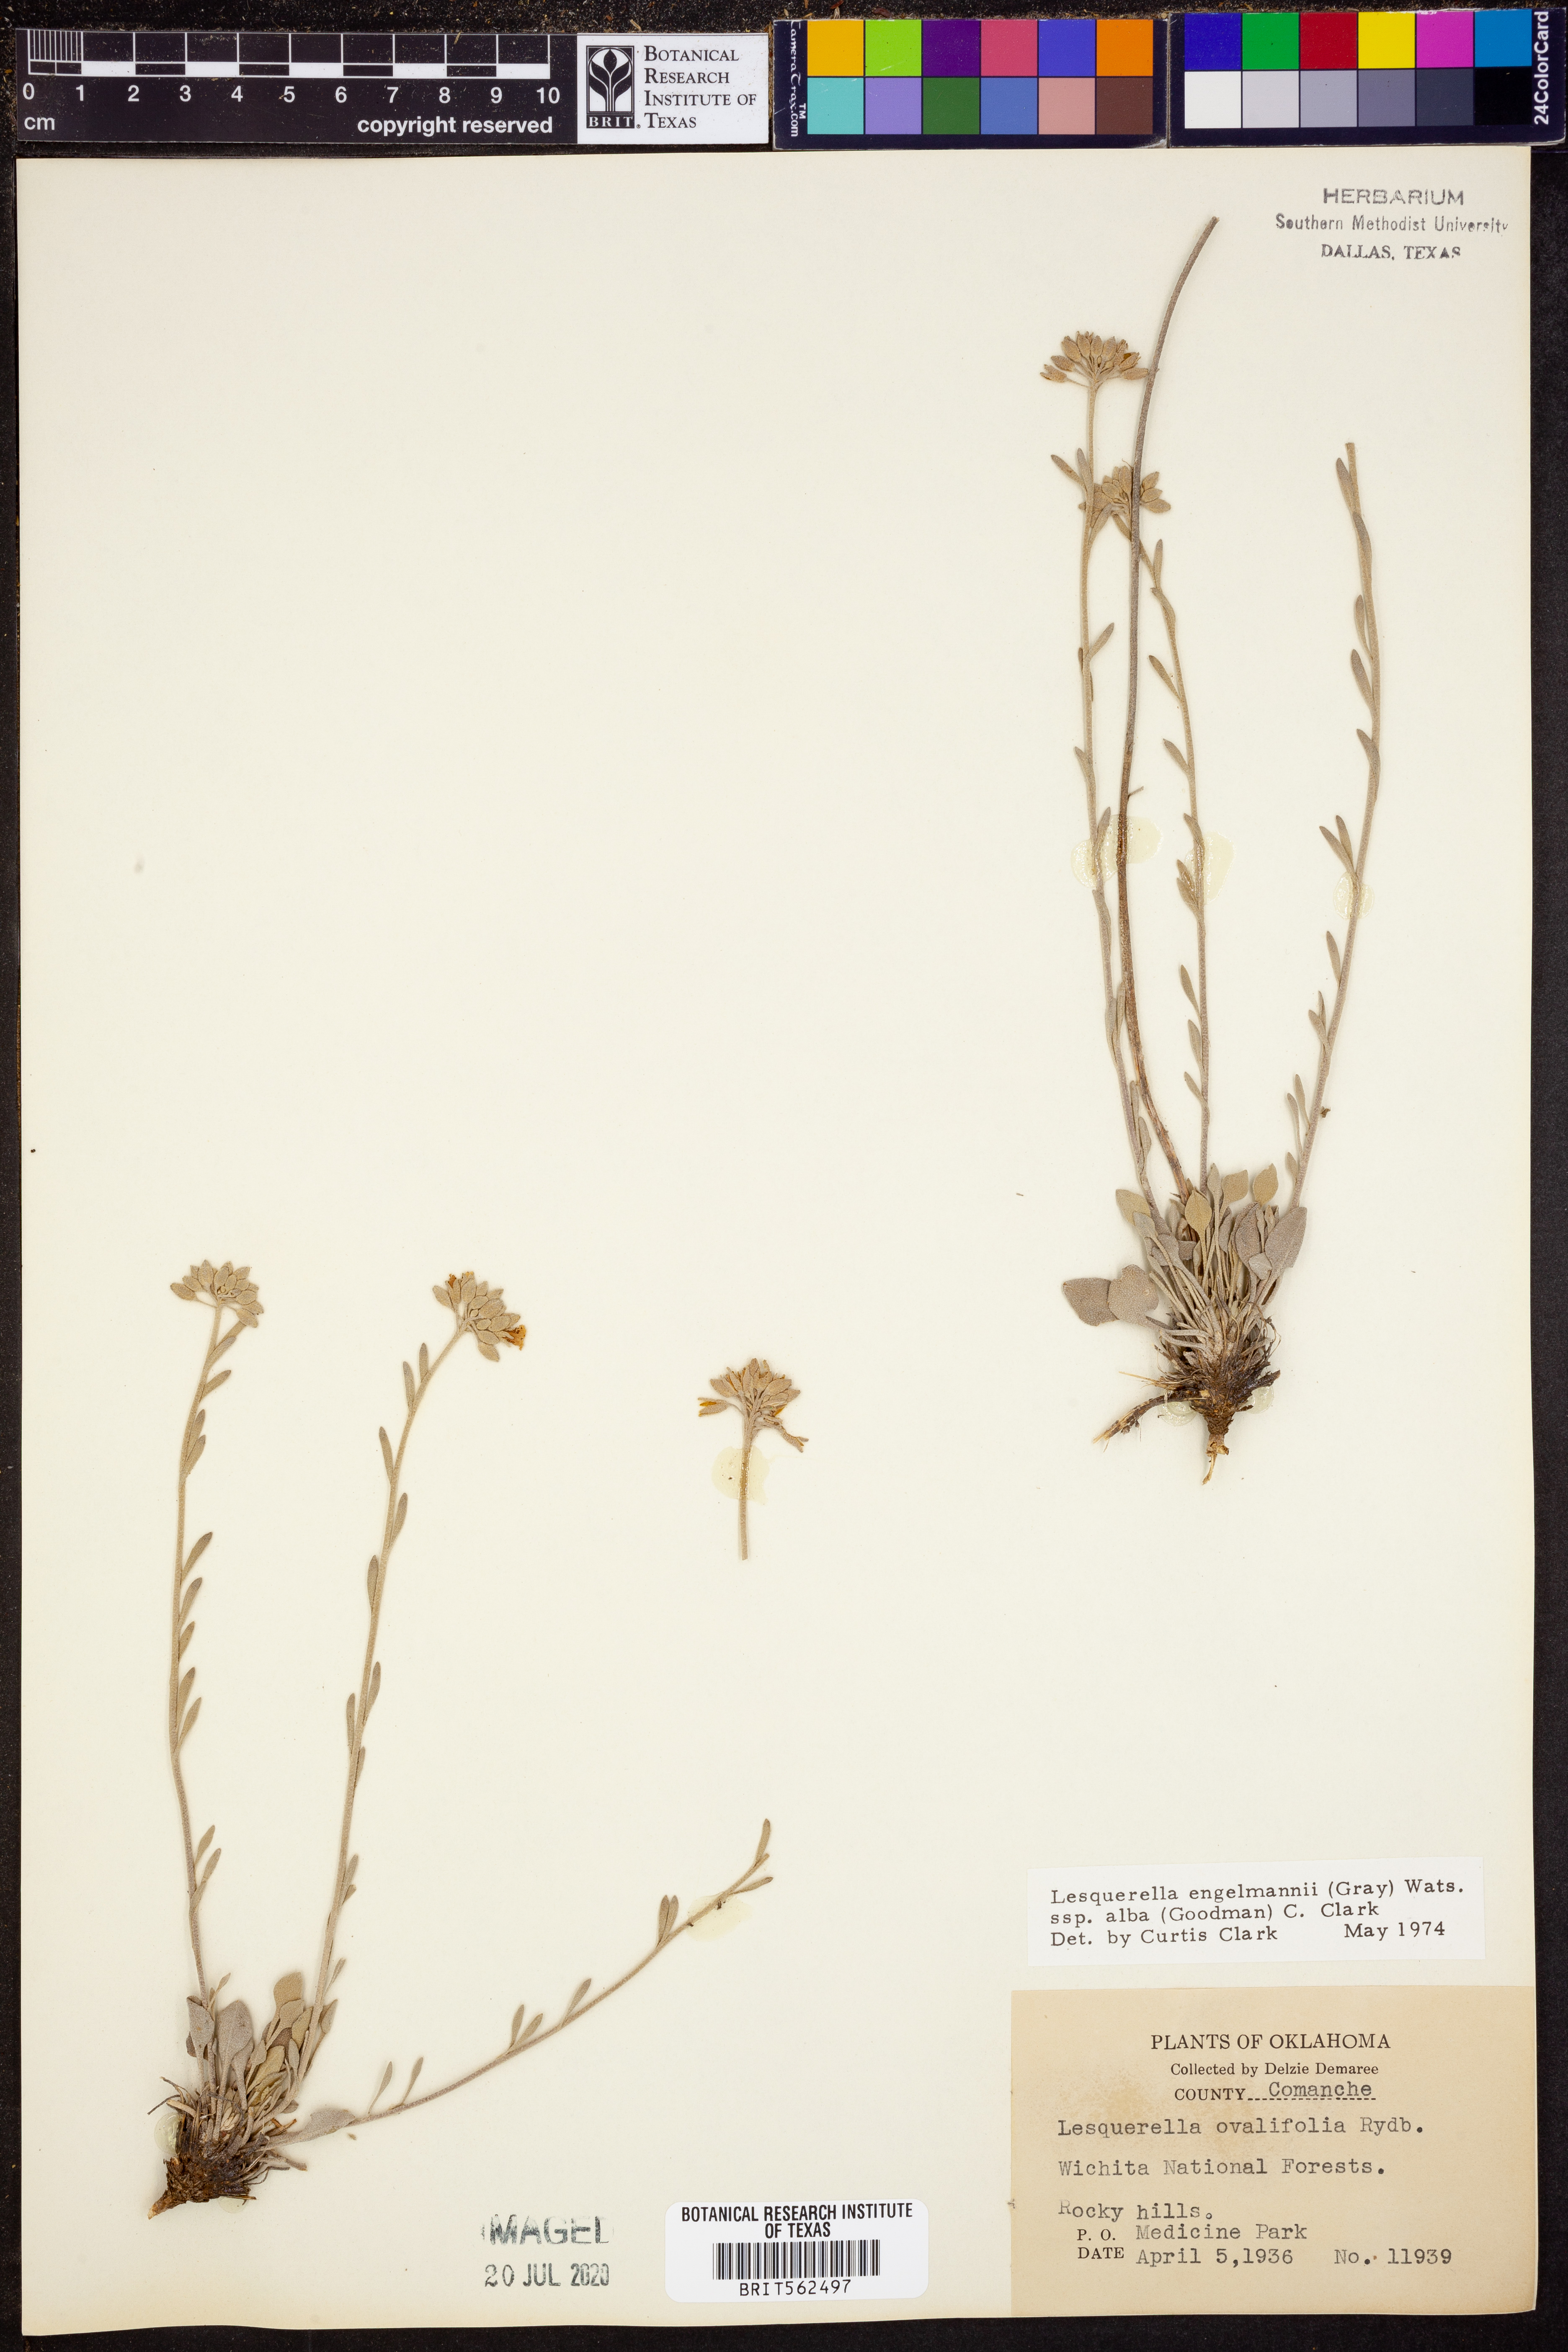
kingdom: Plantae
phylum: Tracheophyta
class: Magnoliopsida
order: Brassicales
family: Brassicaceae
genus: Physaria
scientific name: Physaria ovalifolia
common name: Round-leaf bladderpod
